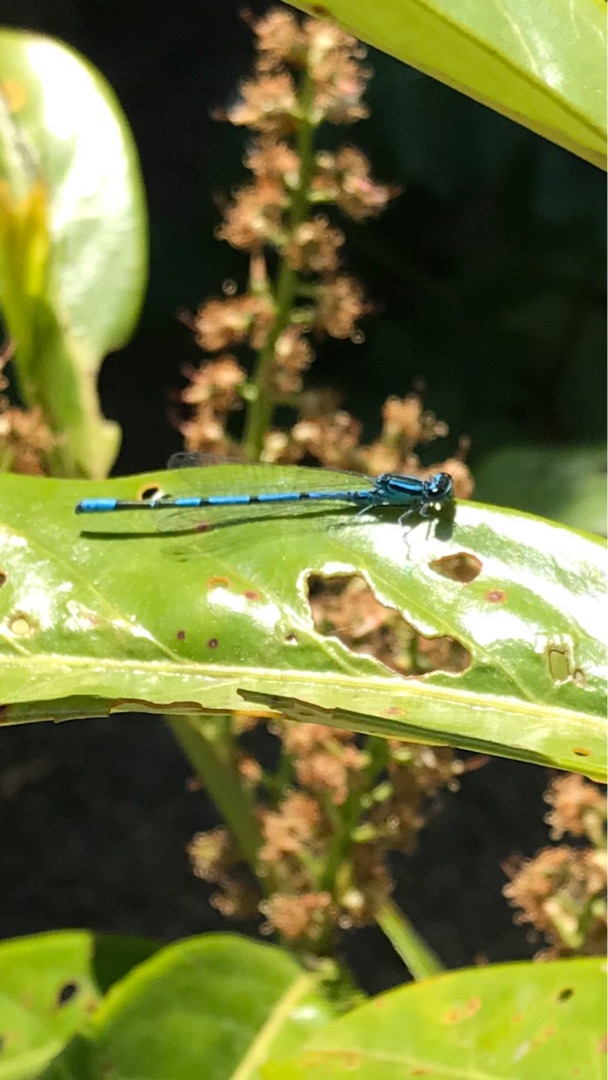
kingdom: Animalia
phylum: Arthropoda
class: Insecta
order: Odonata
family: Coenagrionidae
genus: Coenagrion
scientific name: Coenagrion puella
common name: Hestesko-vandnymfe
